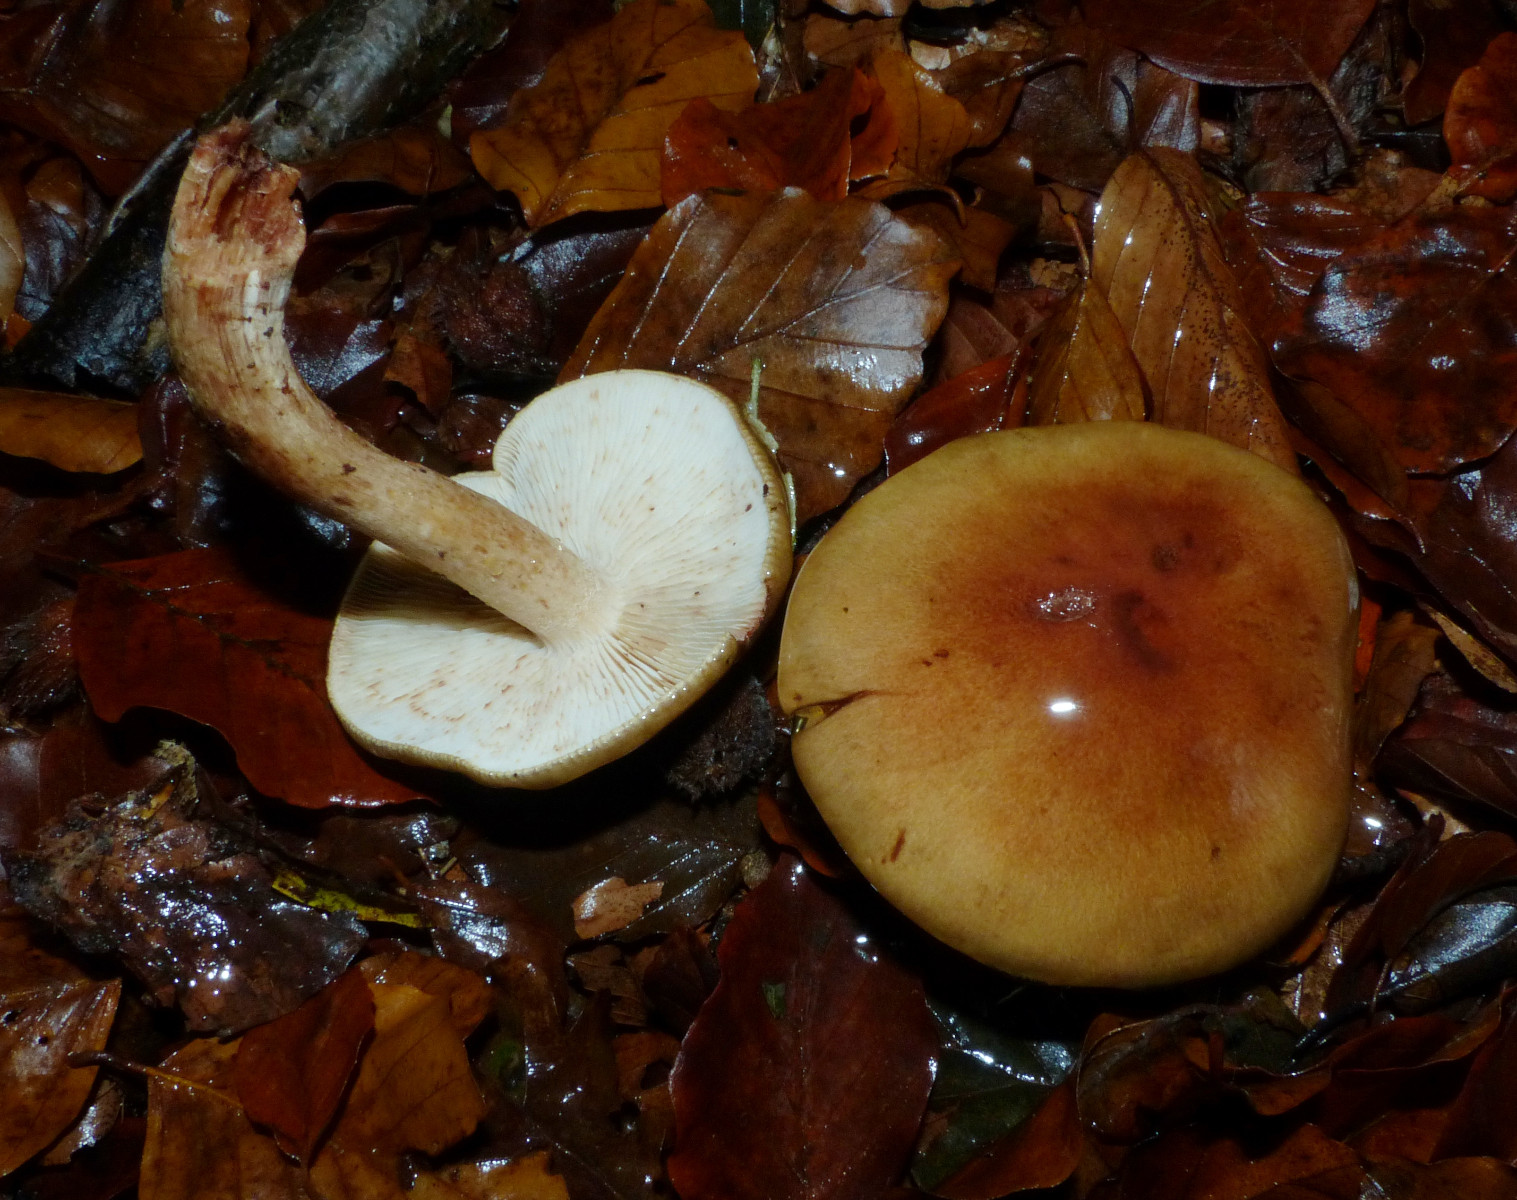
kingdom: Fungi
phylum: Basidiomycota
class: Agaricomycetes
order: Agaricales
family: Tricholomataceae
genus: Tricholoma
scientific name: Tricholoma ustale
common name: sveden ridderhat
